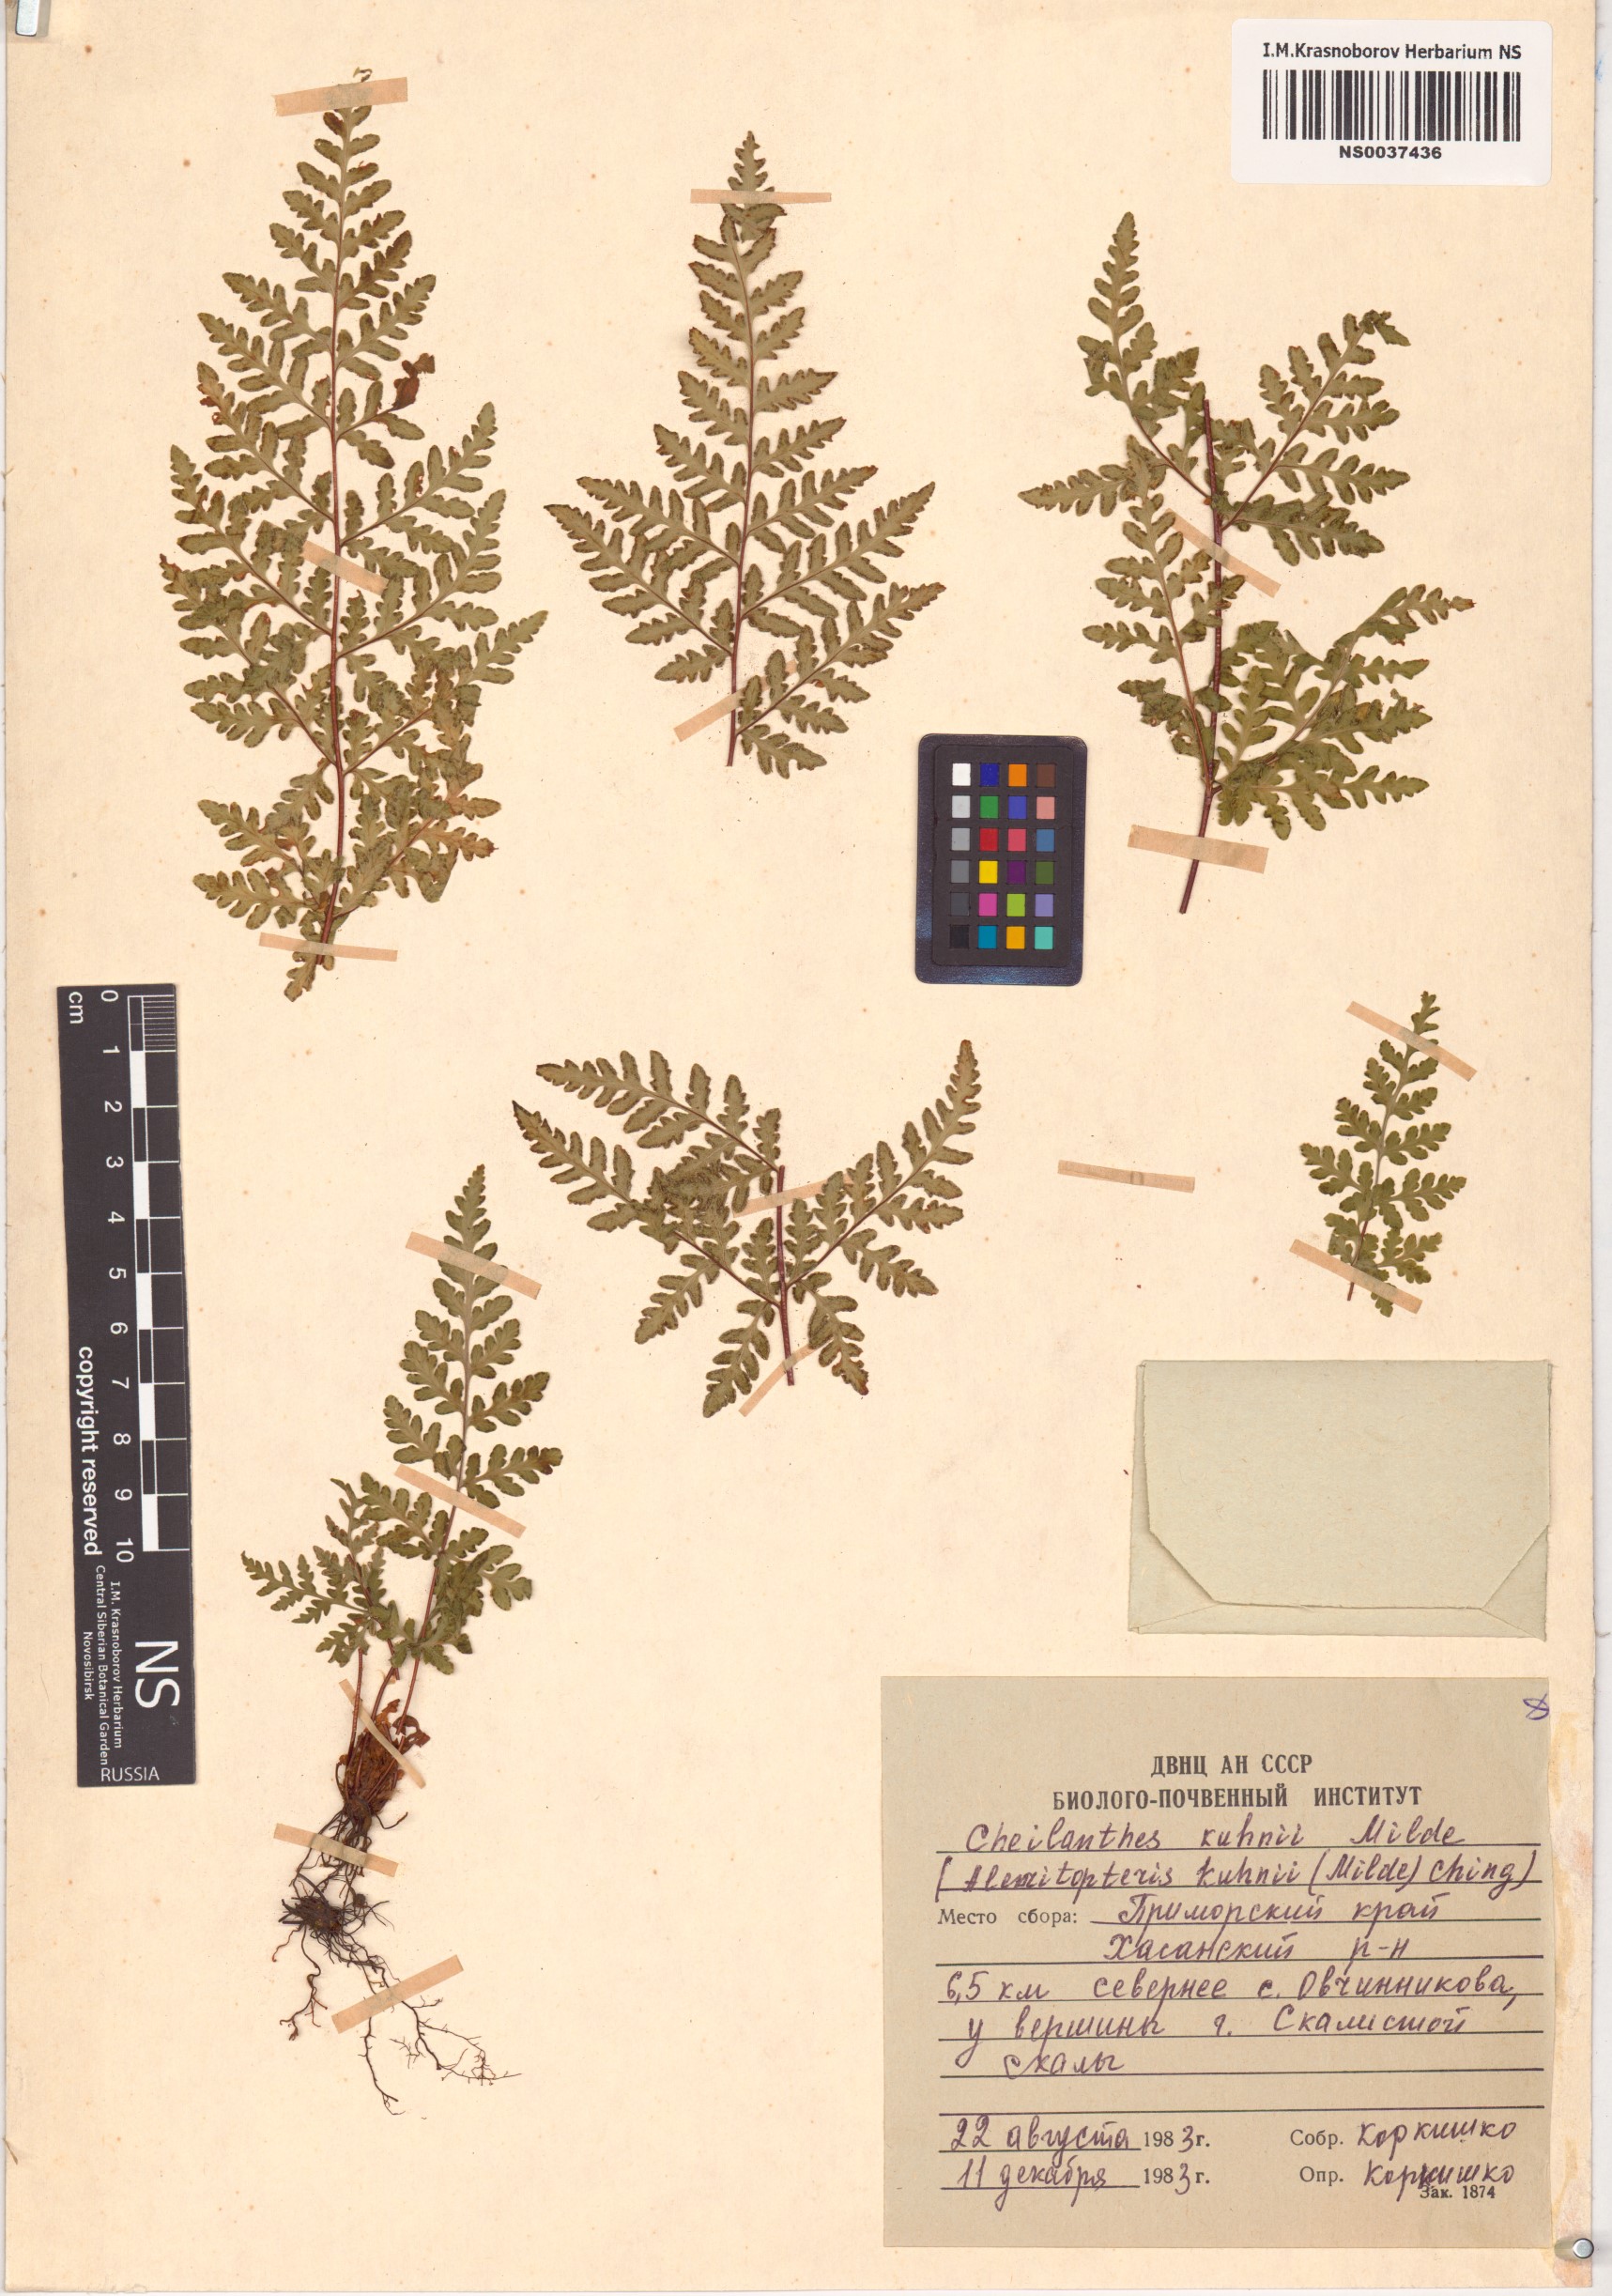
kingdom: Plantae
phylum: Tracheophyta
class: Polypodiopsida
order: Polypodiales
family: Pteridaceae
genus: Oeosporangium
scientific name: Oeosporangium kuhnii
